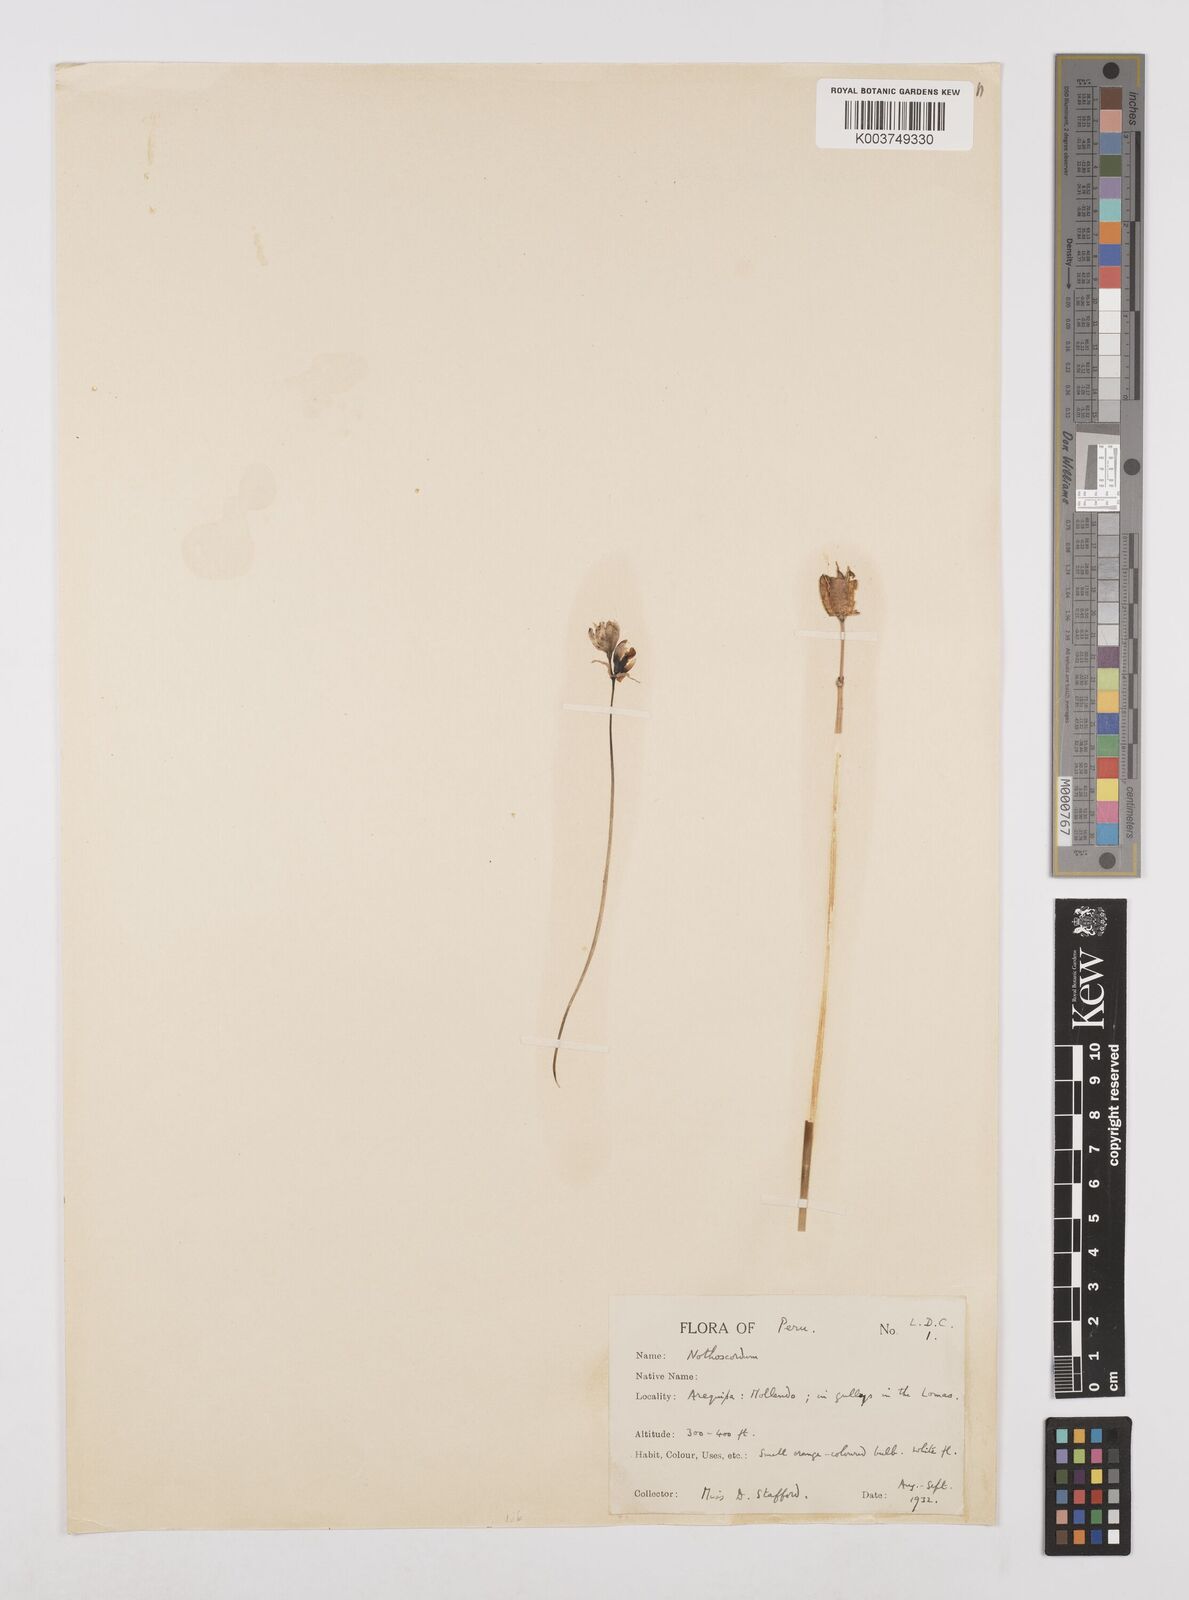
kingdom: Plantae
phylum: Tracheophyta
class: Liliopsida
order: Asparagales
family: Amaryllidaceae
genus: Nothoscordum
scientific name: Nothoscordum
